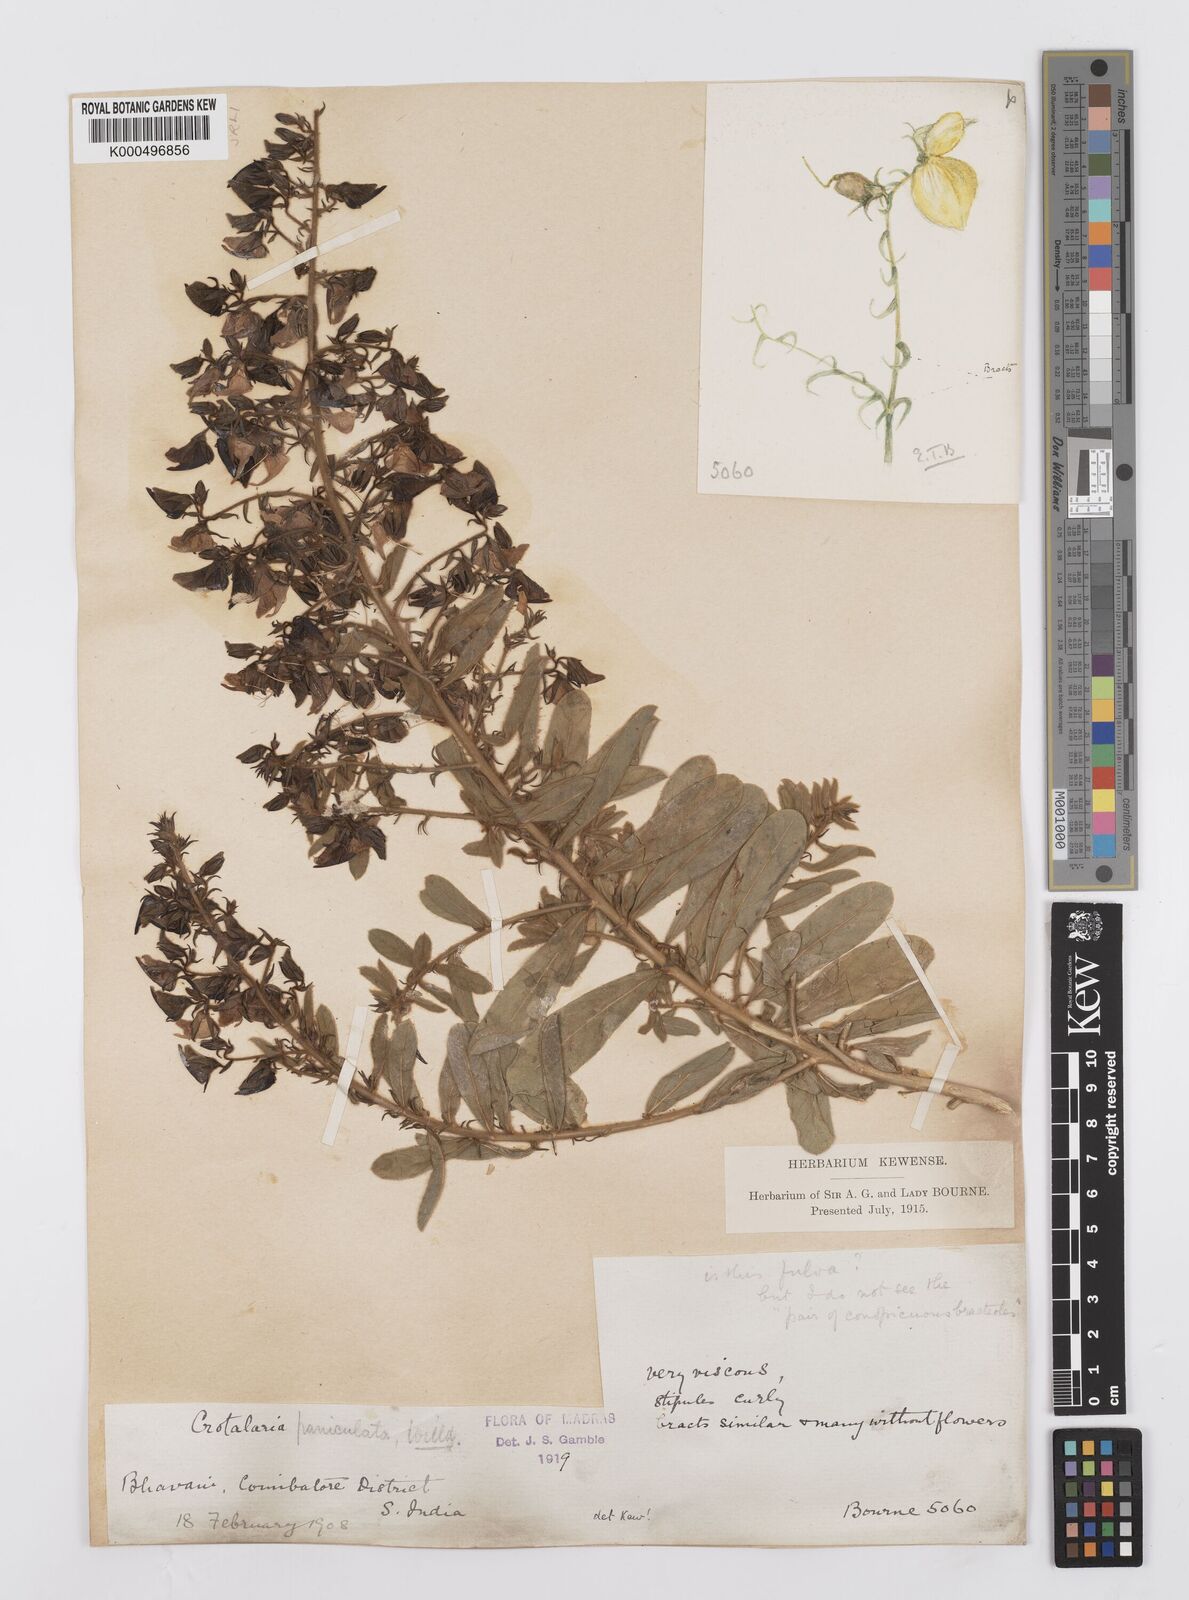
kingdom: Plantae
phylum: Tracheophyta
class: Magnoliopsida
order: Fabales
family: Fabaceae
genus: Crotalaria
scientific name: Crotalaria paniculata
